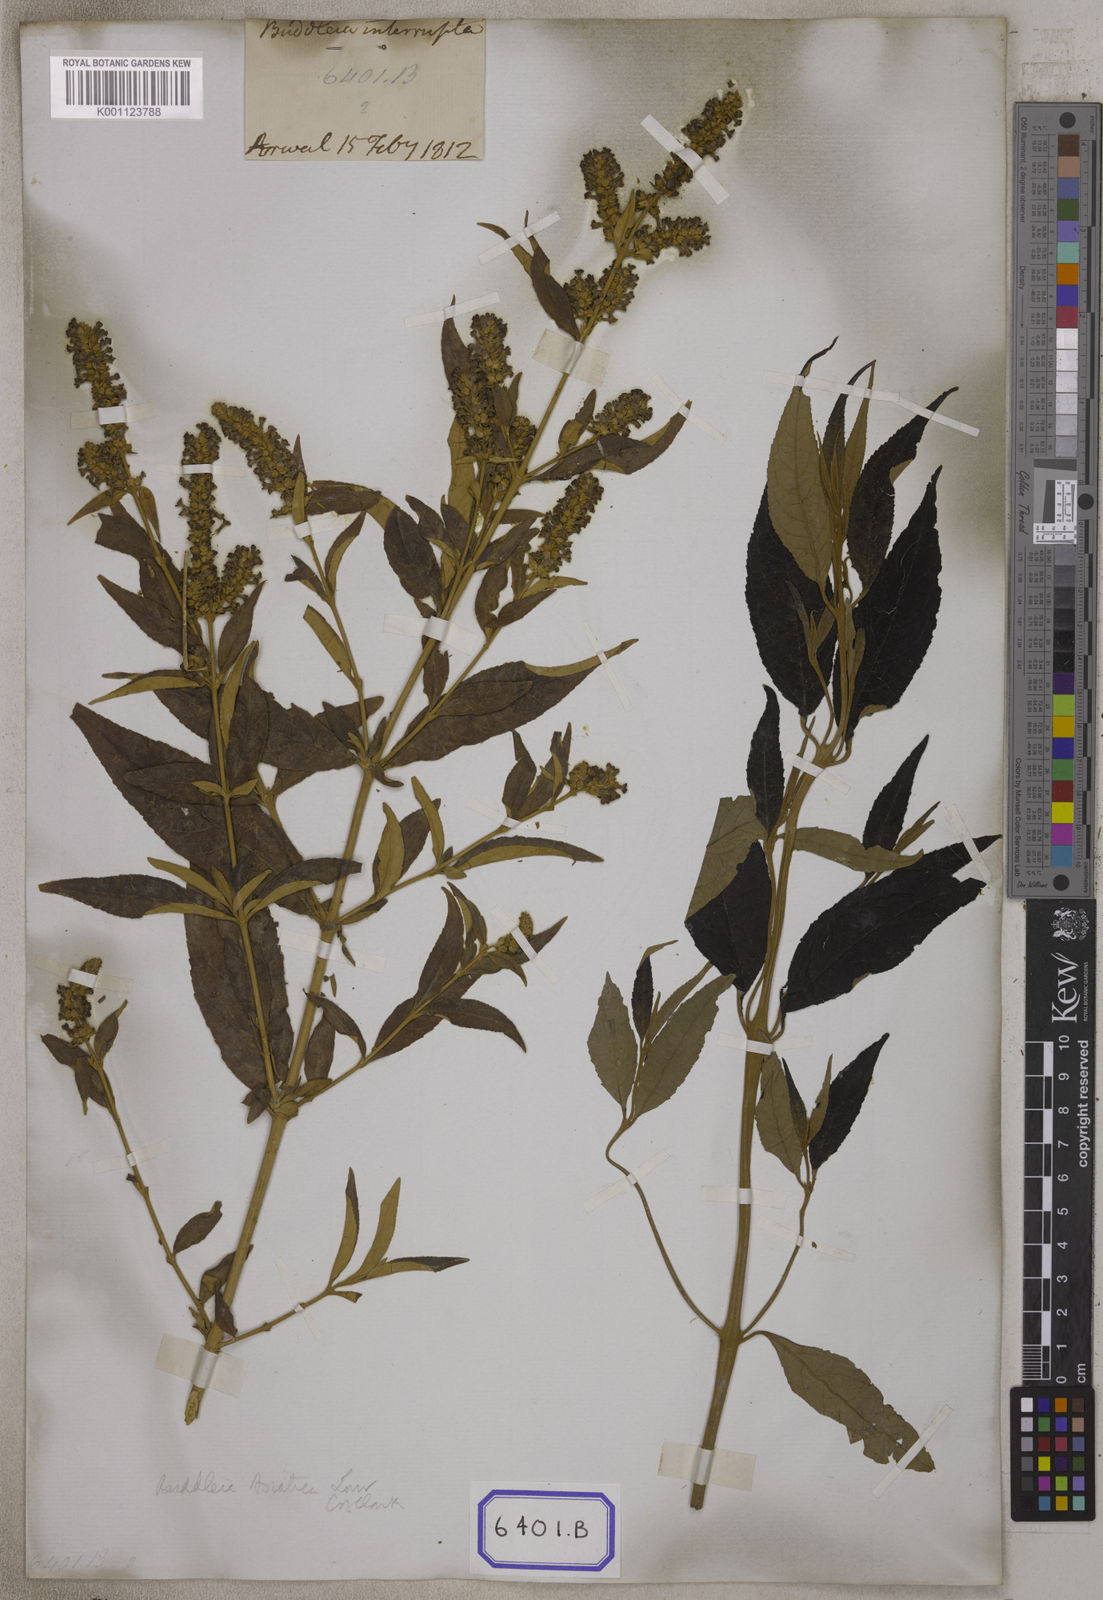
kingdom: Plantae
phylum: Tracheophyta
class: Magnoliopsida
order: Lamiales
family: Scrophulariaceae
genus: Buddleja
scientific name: Buddleja
